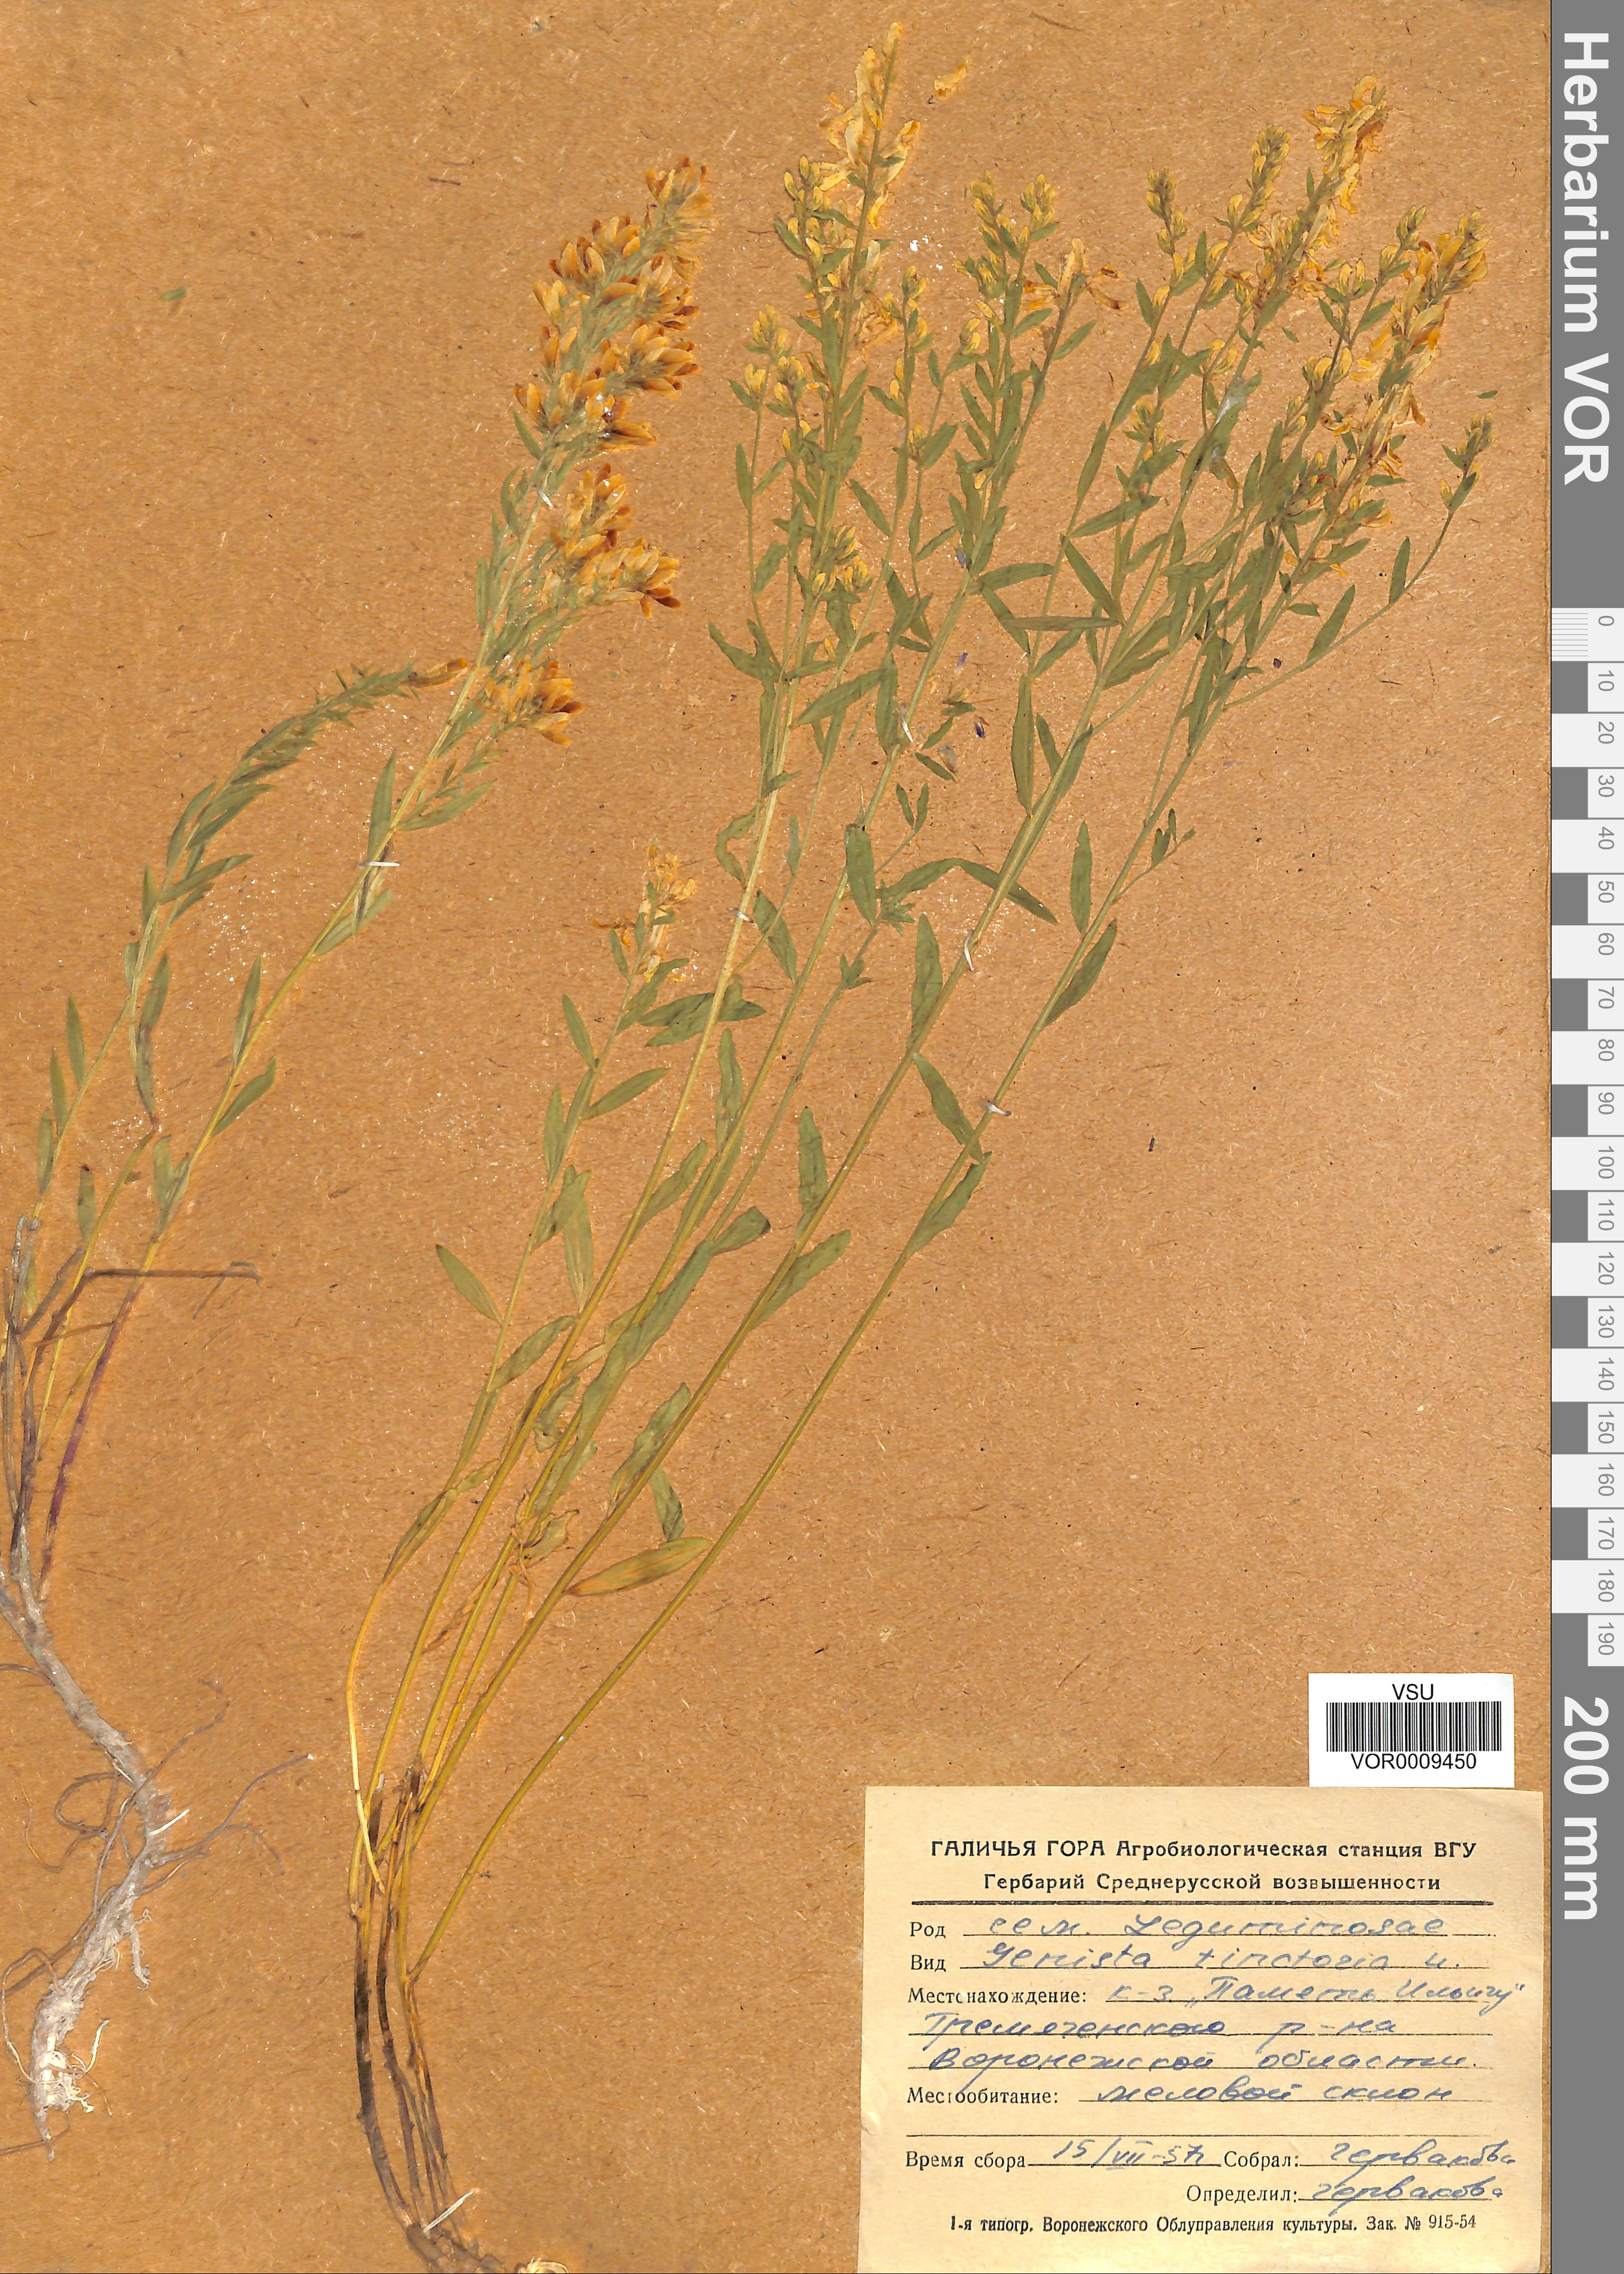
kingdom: Plantae
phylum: Tracheophyta
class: Magnoliopsida
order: Fabales
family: Fabaceae
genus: Genista
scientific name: Genista tinctoria
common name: Dyer's greenweed
